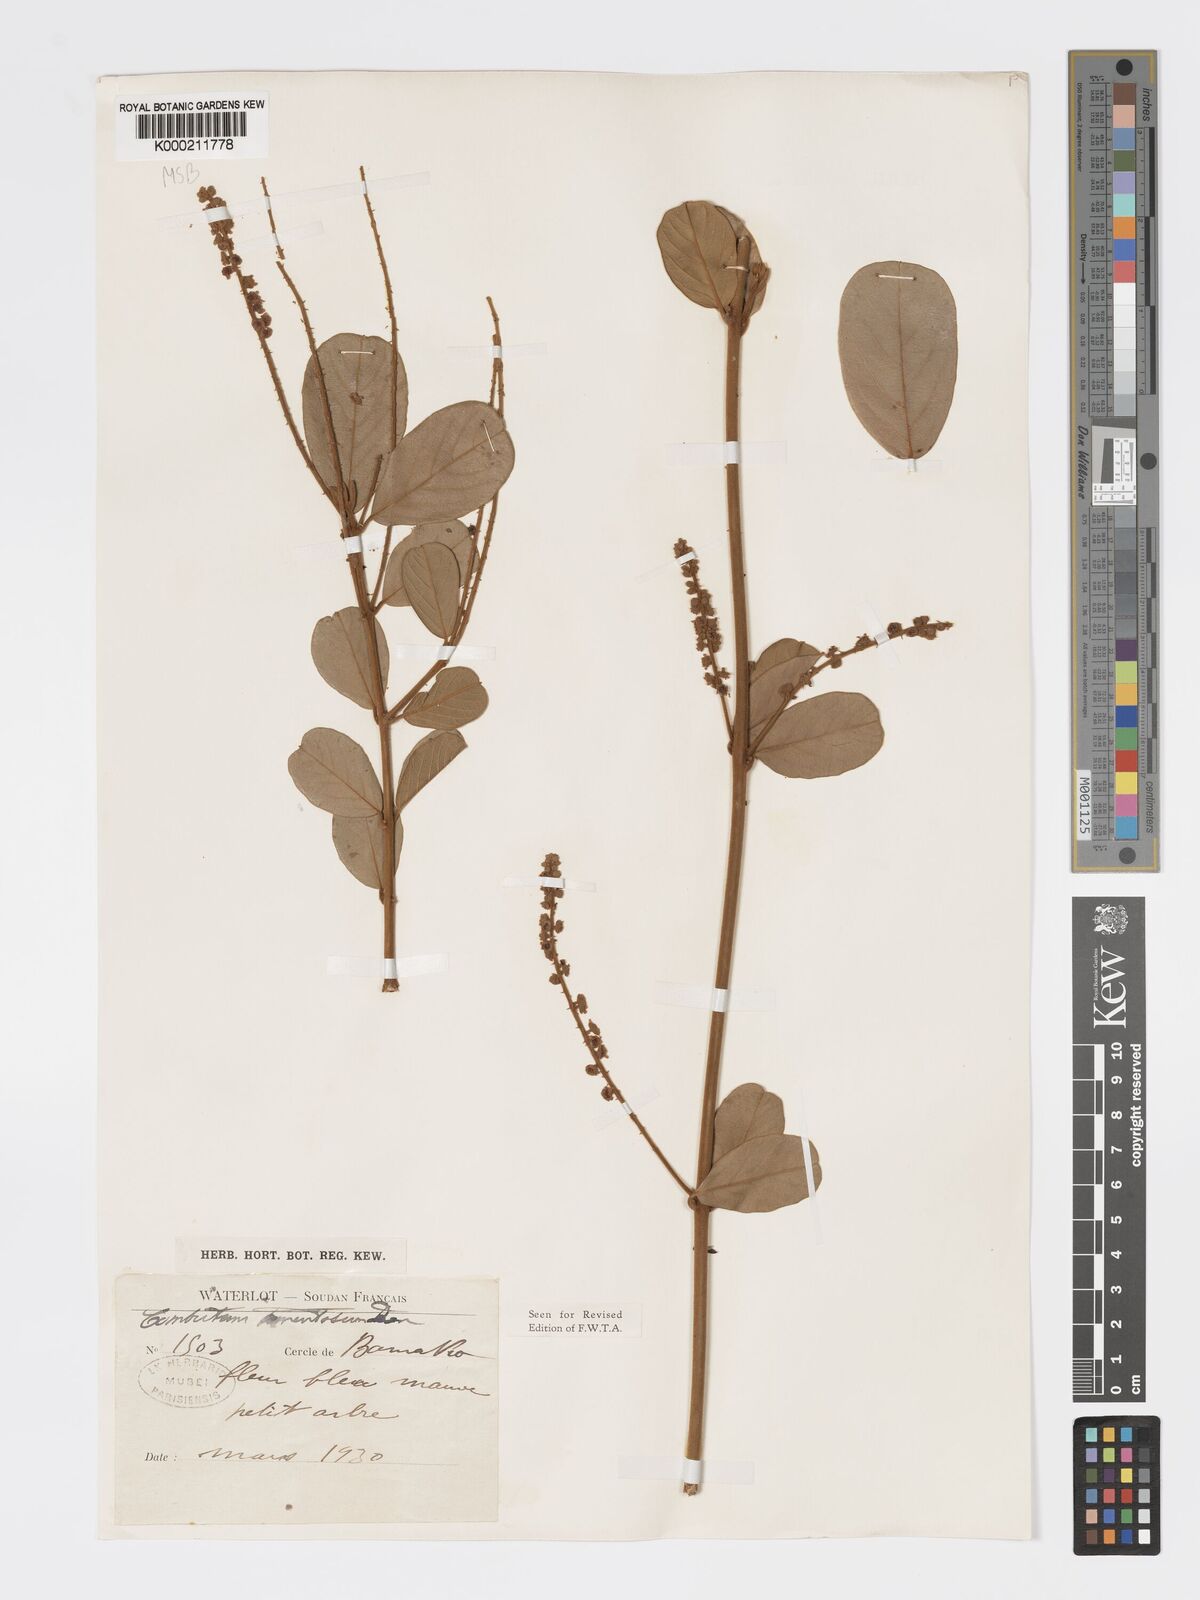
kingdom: Plantae
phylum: Tracheophyta
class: Magnoliopsida
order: Myrtales
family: Combretaceae
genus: Combretum
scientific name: Combretum tomentosum
